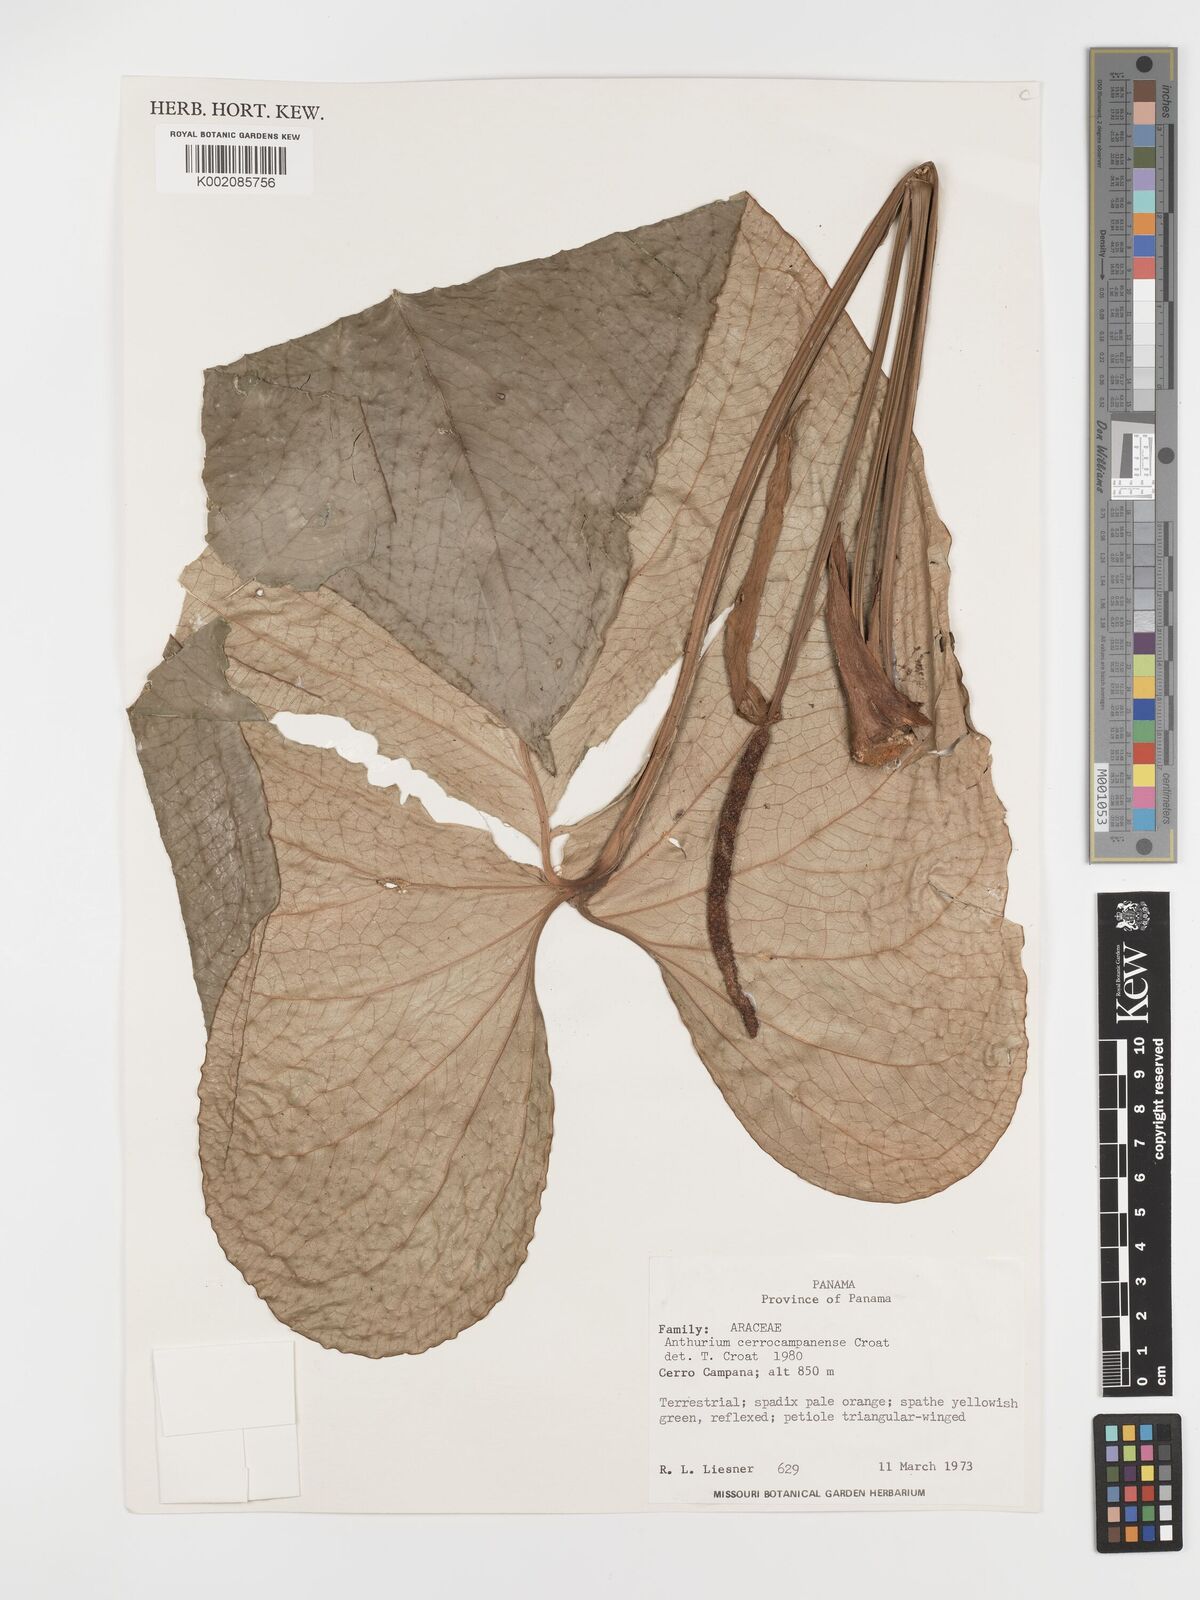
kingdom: Plantae
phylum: Tracheophyta
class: Liliopsida
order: Alismatales
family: Araceae
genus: Anthurium
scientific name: Anthurium cerrocampanense
